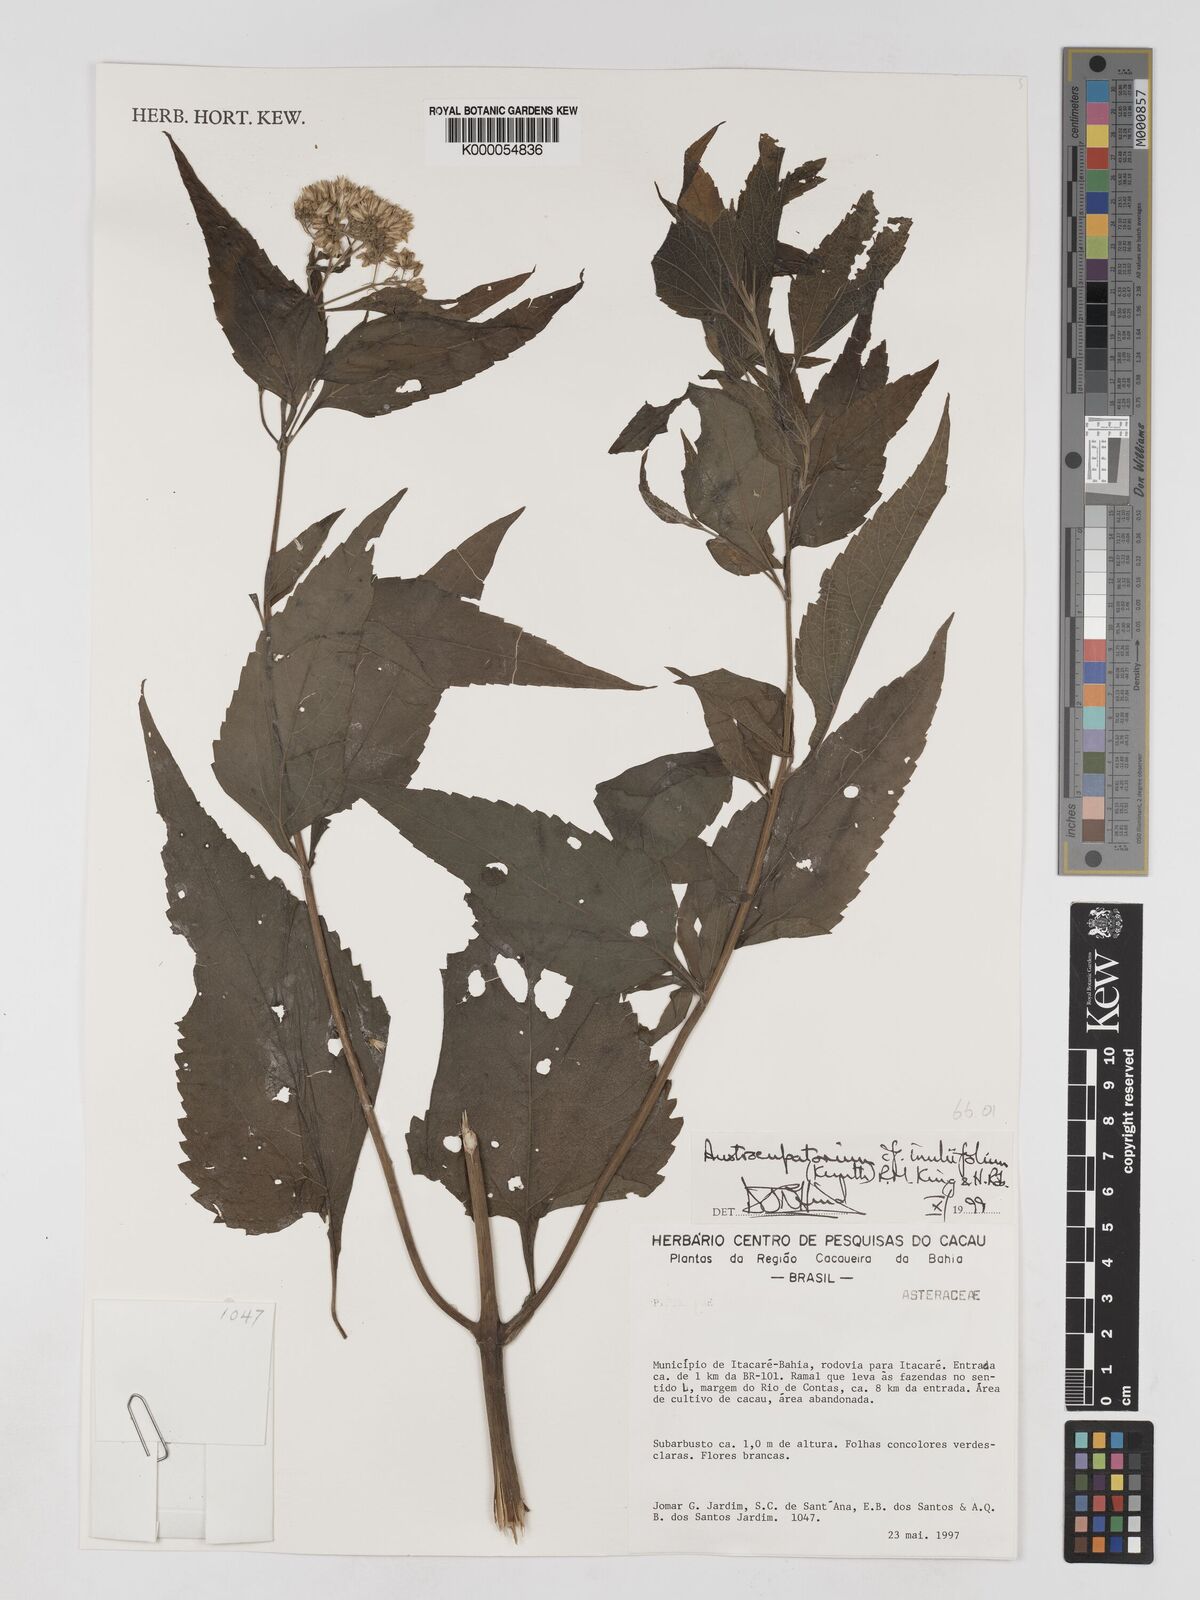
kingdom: Plantae
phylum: Tracheophyta
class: Magnoliopsida
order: Asterales
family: Asteraceae
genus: Austroeupatorium
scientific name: Austroeupatorium inulifolium
